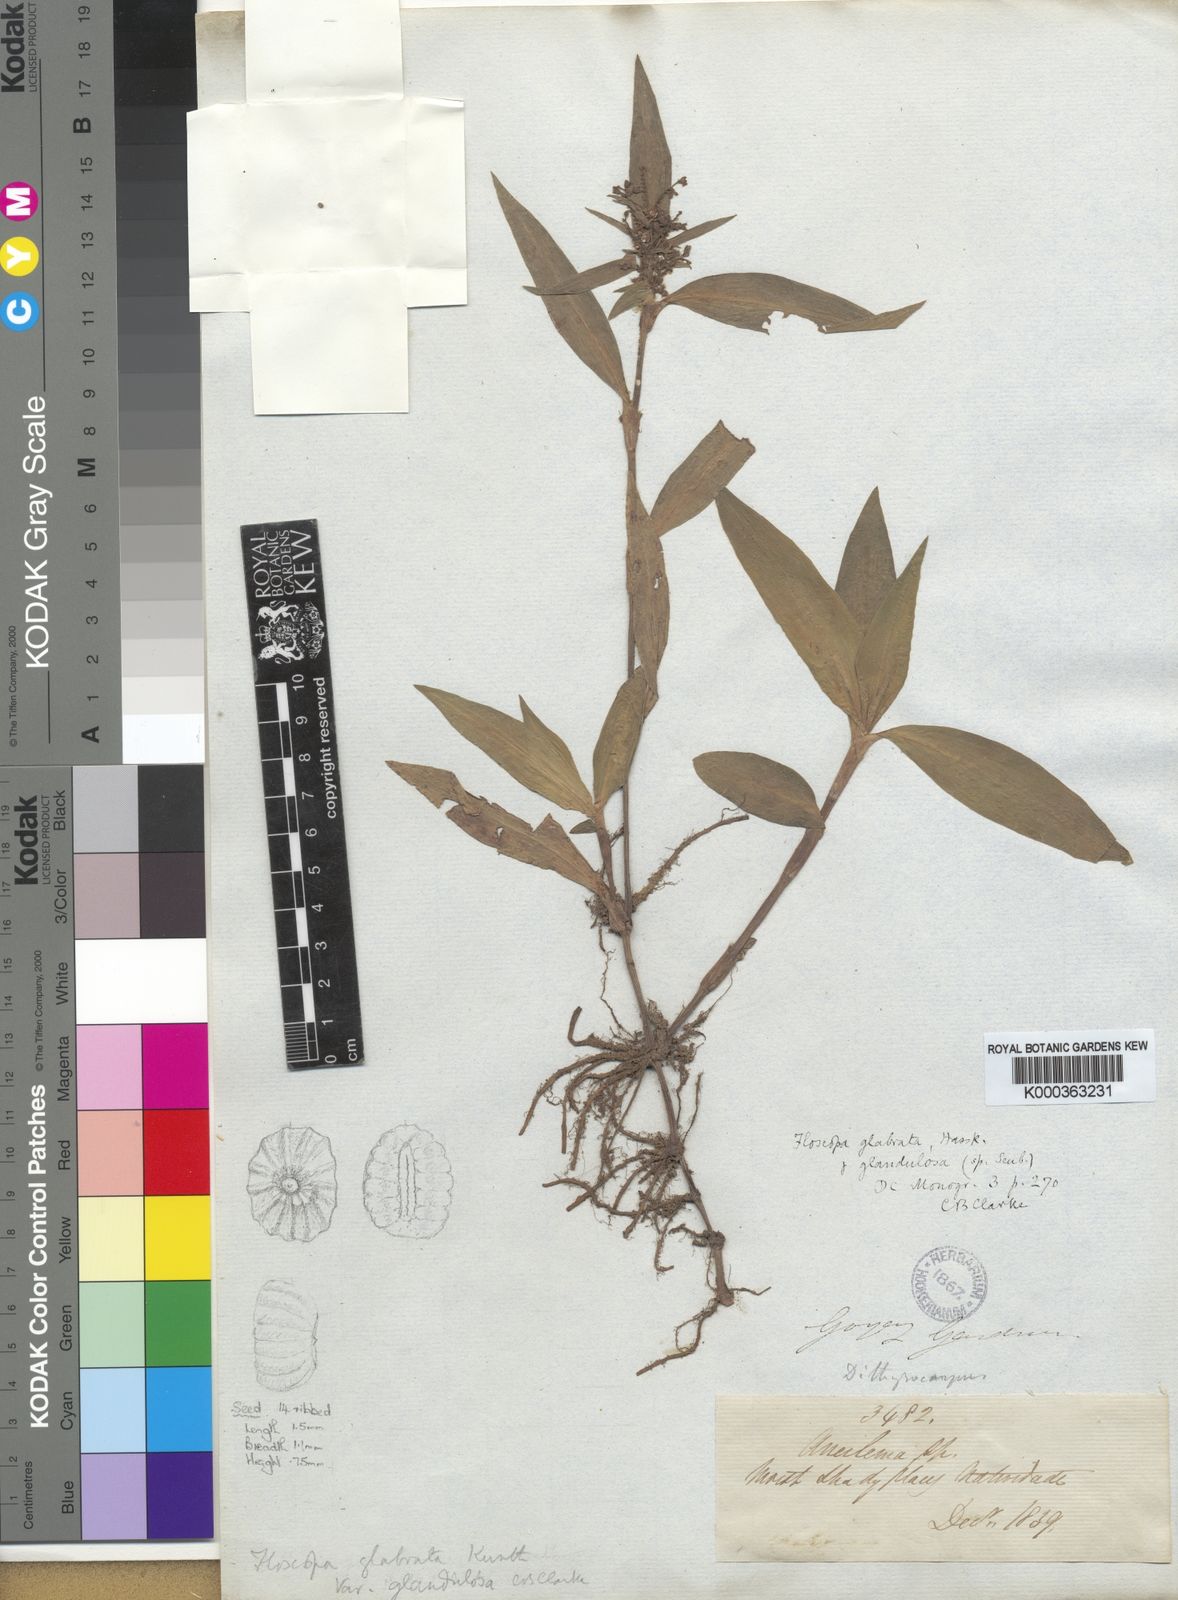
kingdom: Plantae
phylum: Tracheophyta
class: Liliopsida
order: Commelinales
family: Commelinaceae
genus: Floscopa
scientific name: Floscopa glabrata
